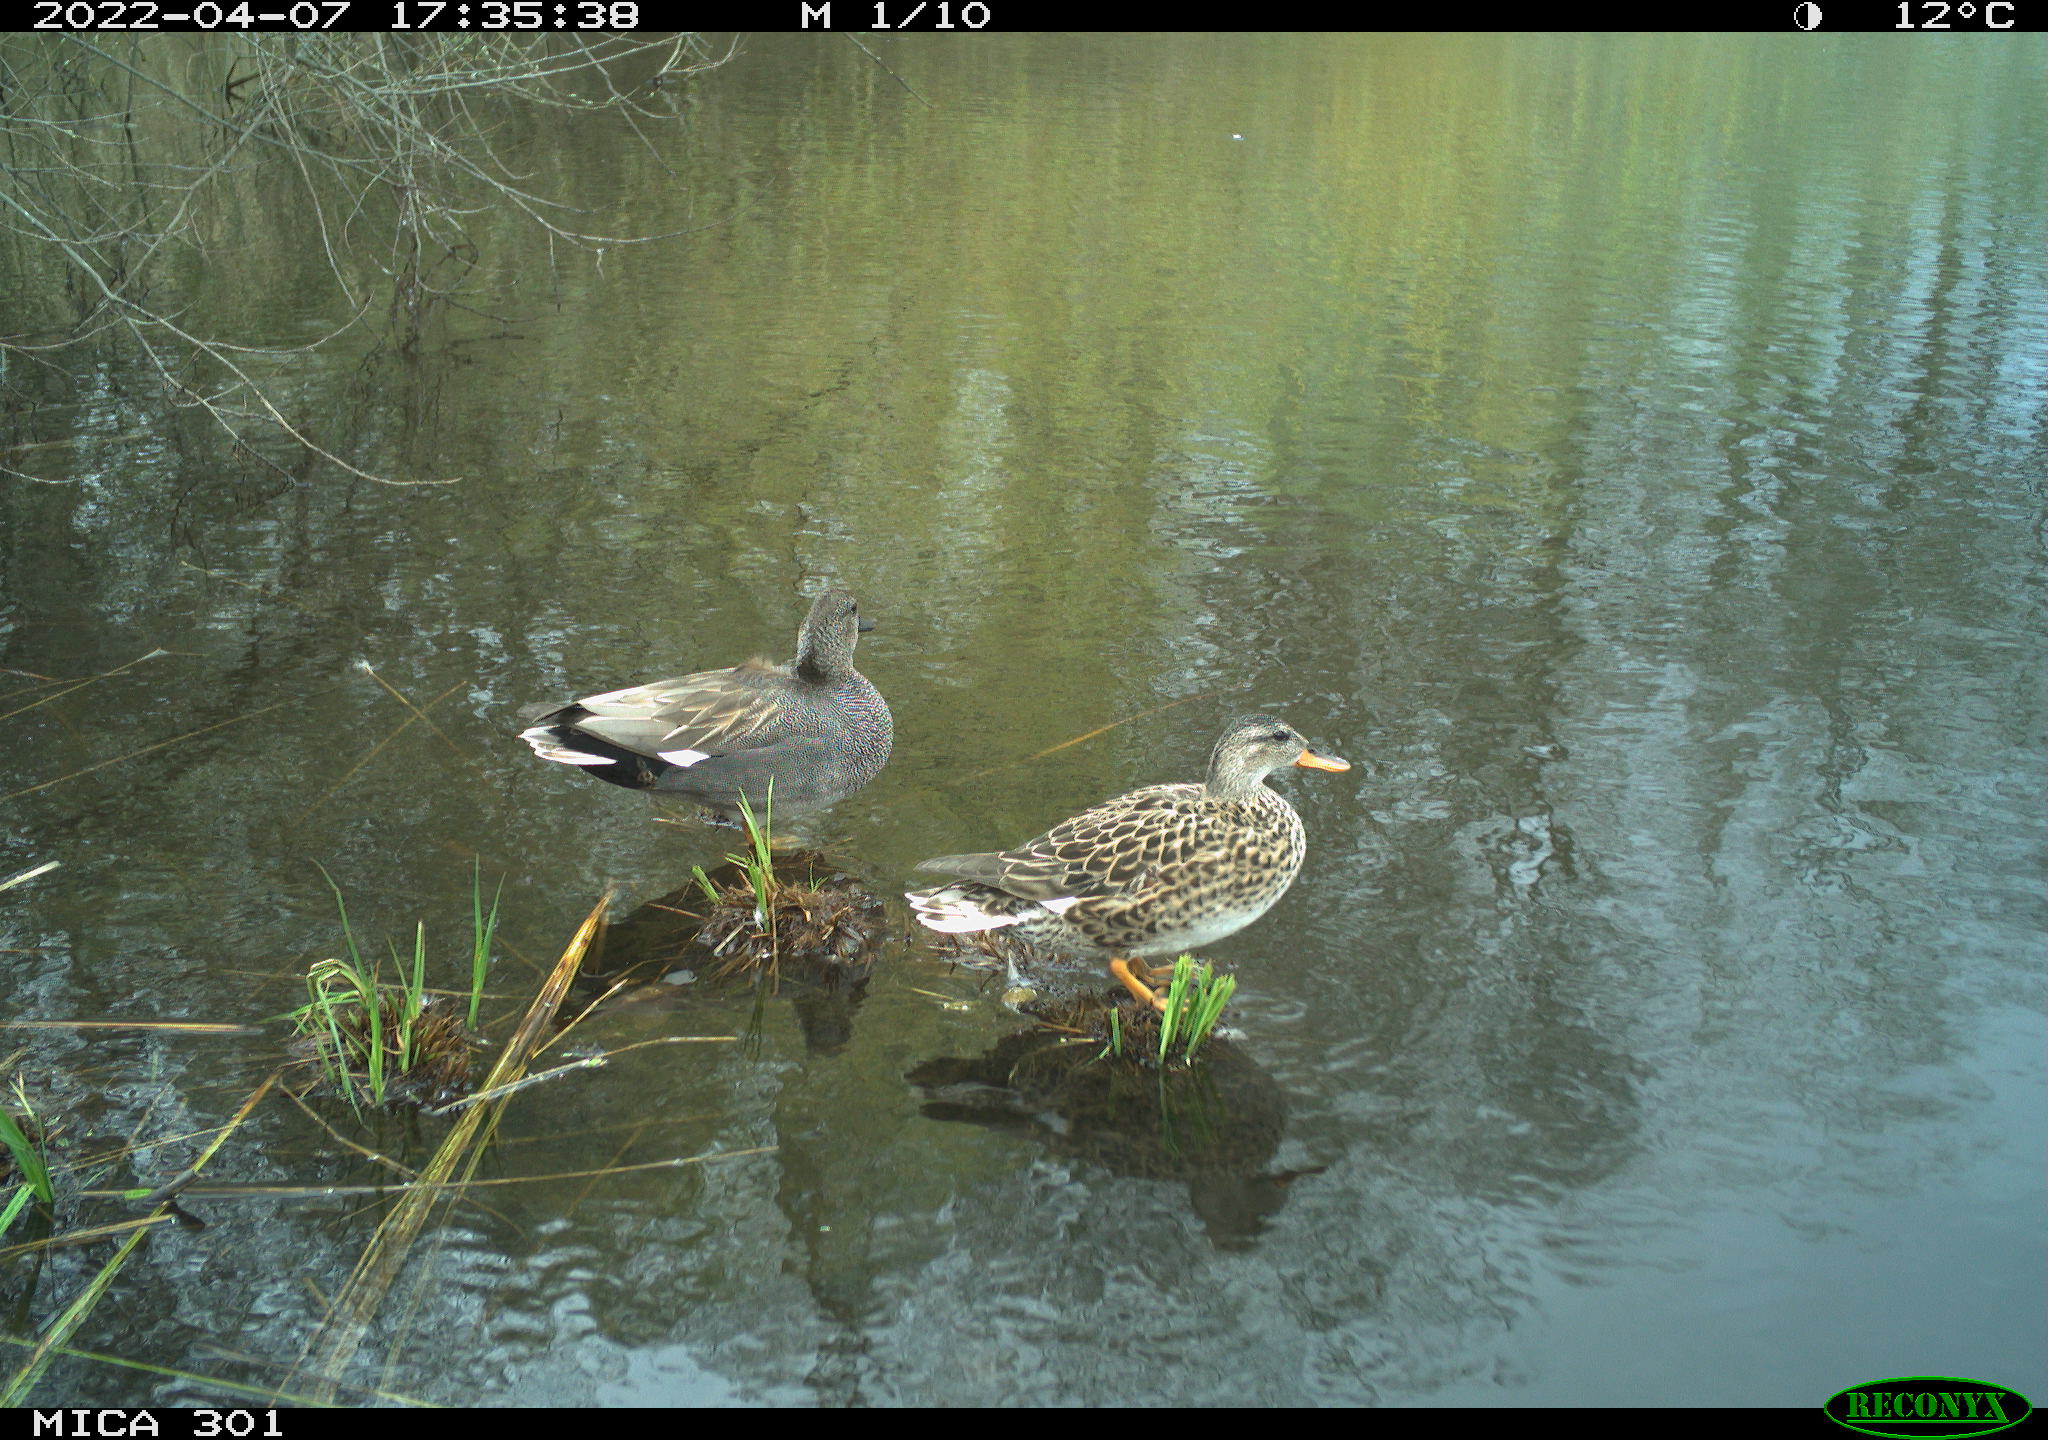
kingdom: Animalia
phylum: Chordata
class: Aves
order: Anseriformes
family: Anatidae
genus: Mareca
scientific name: Mareca strepera
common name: Gadwall
